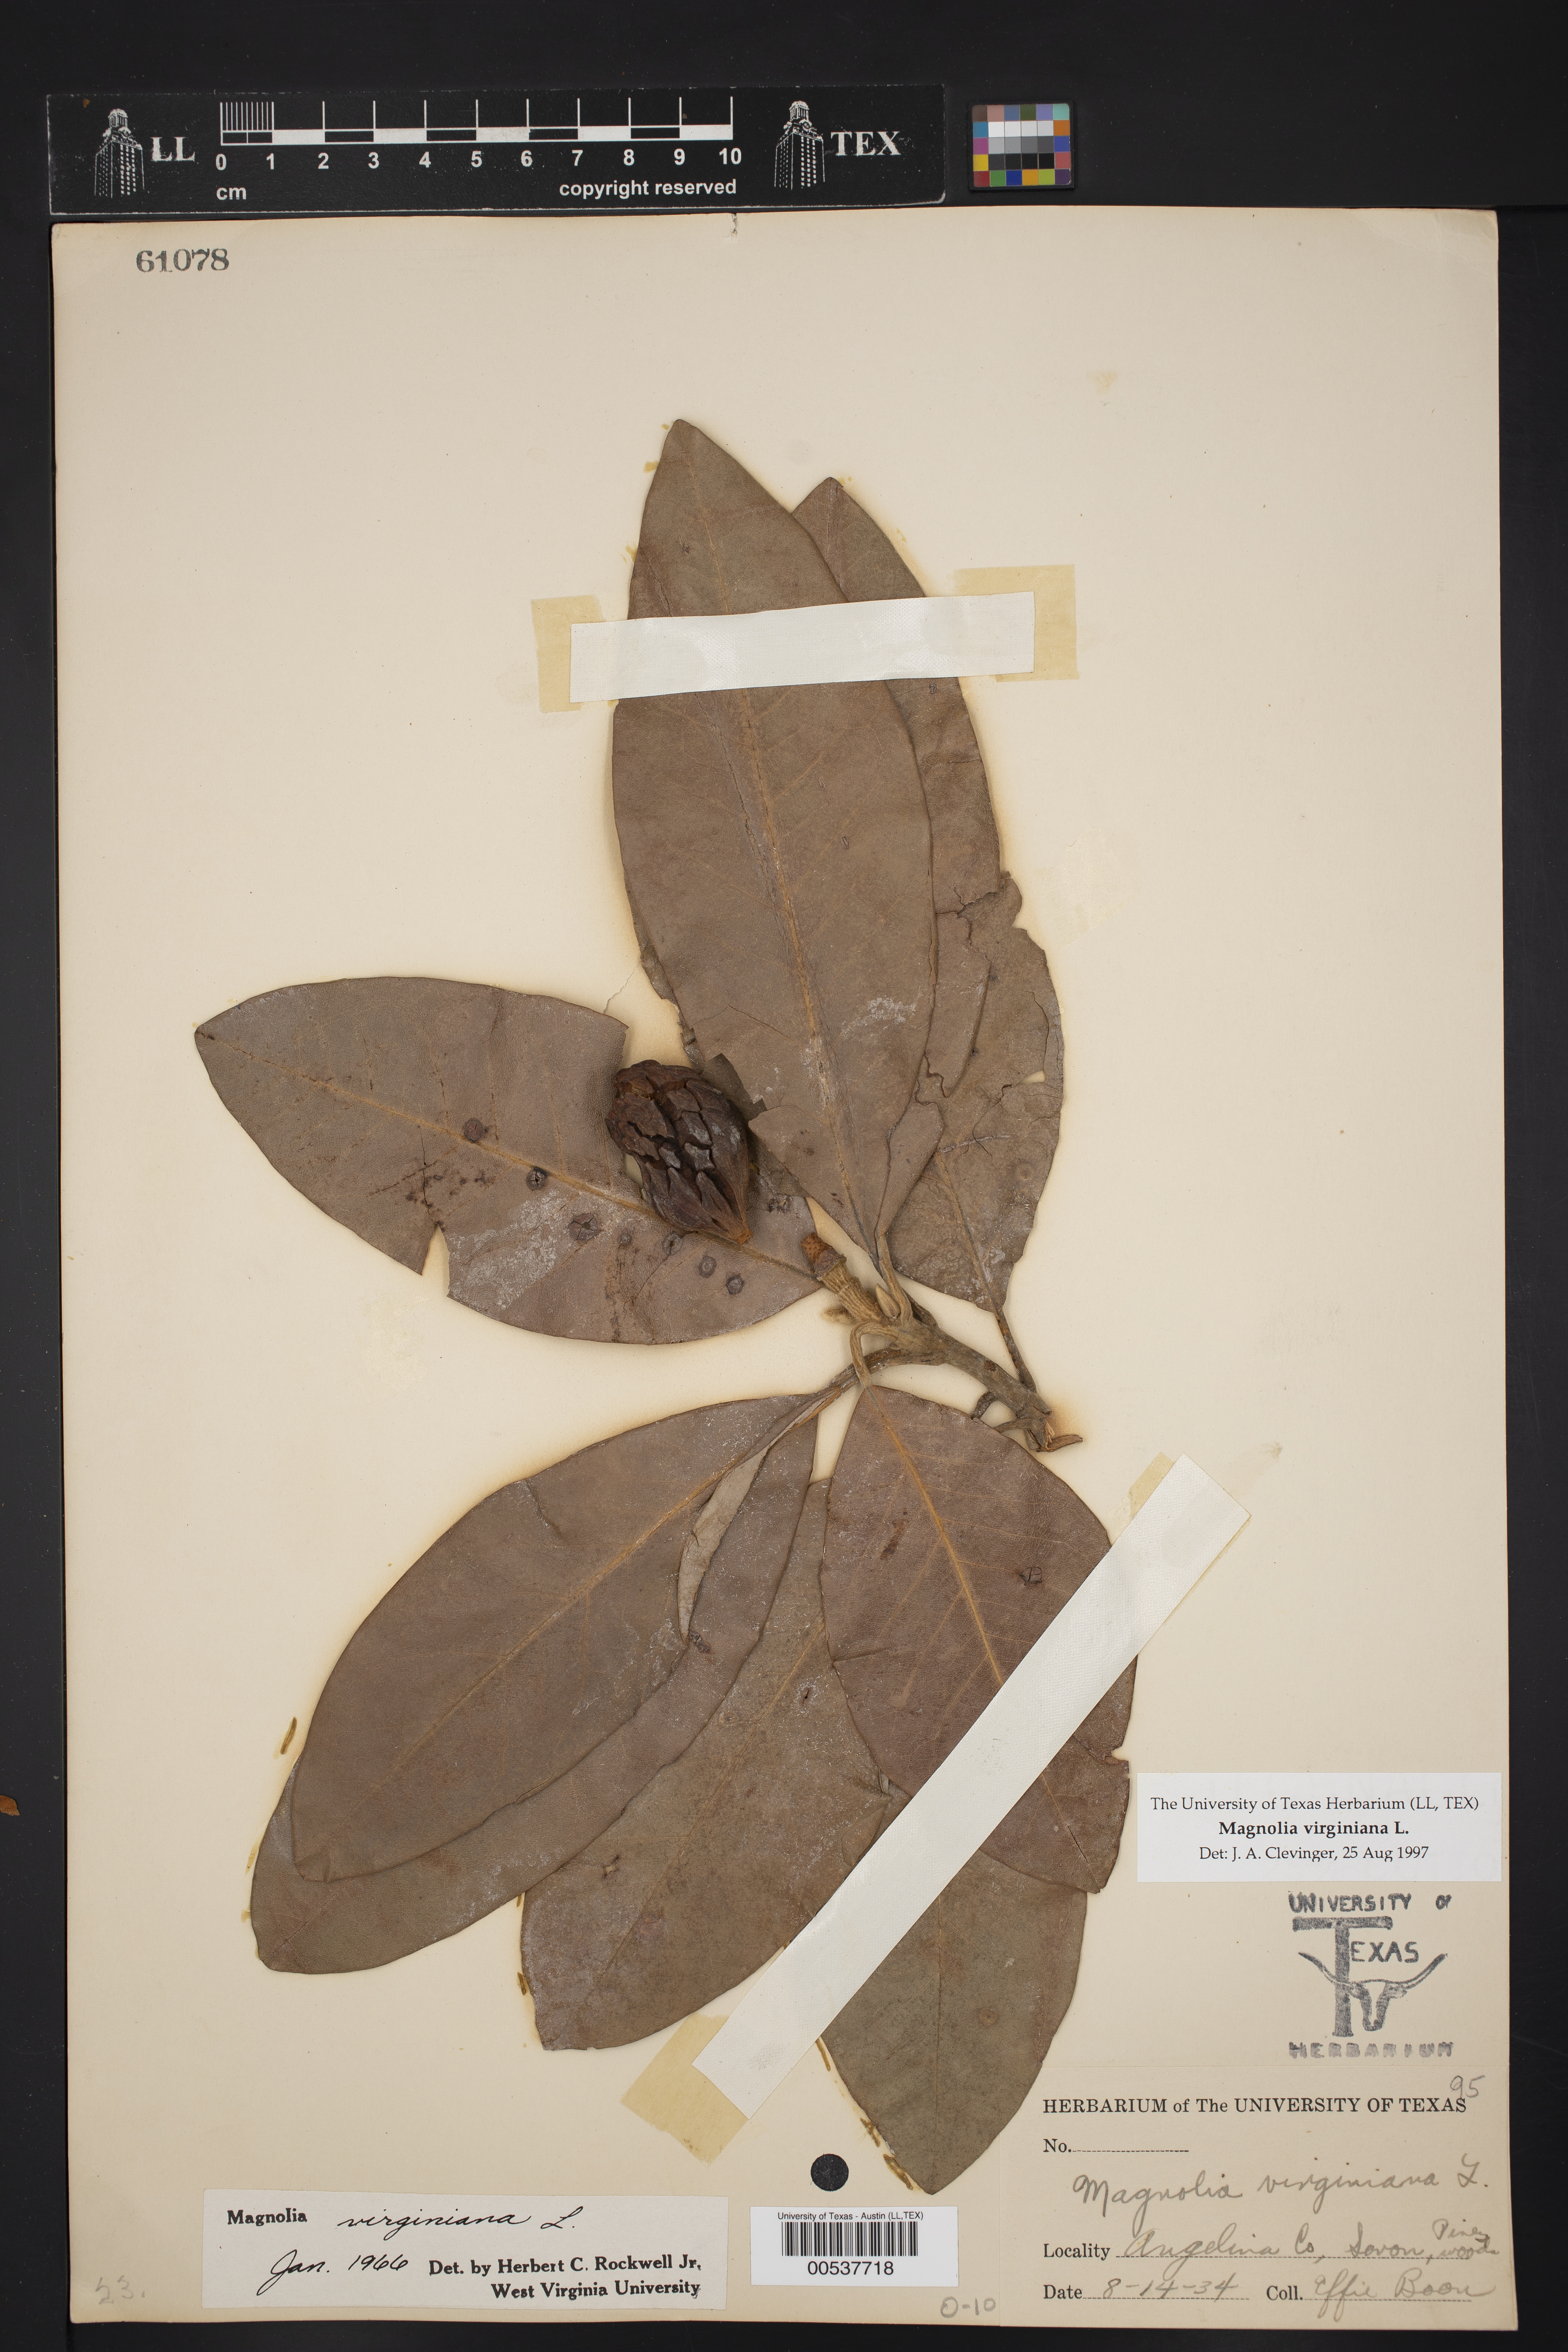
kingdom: Plantae
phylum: Tracheophyta
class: Magnoliopsida
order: Magnoliales
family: Magnoliaceae
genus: Magnolia
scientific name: Magnolia virginiana
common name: Swamp bay
